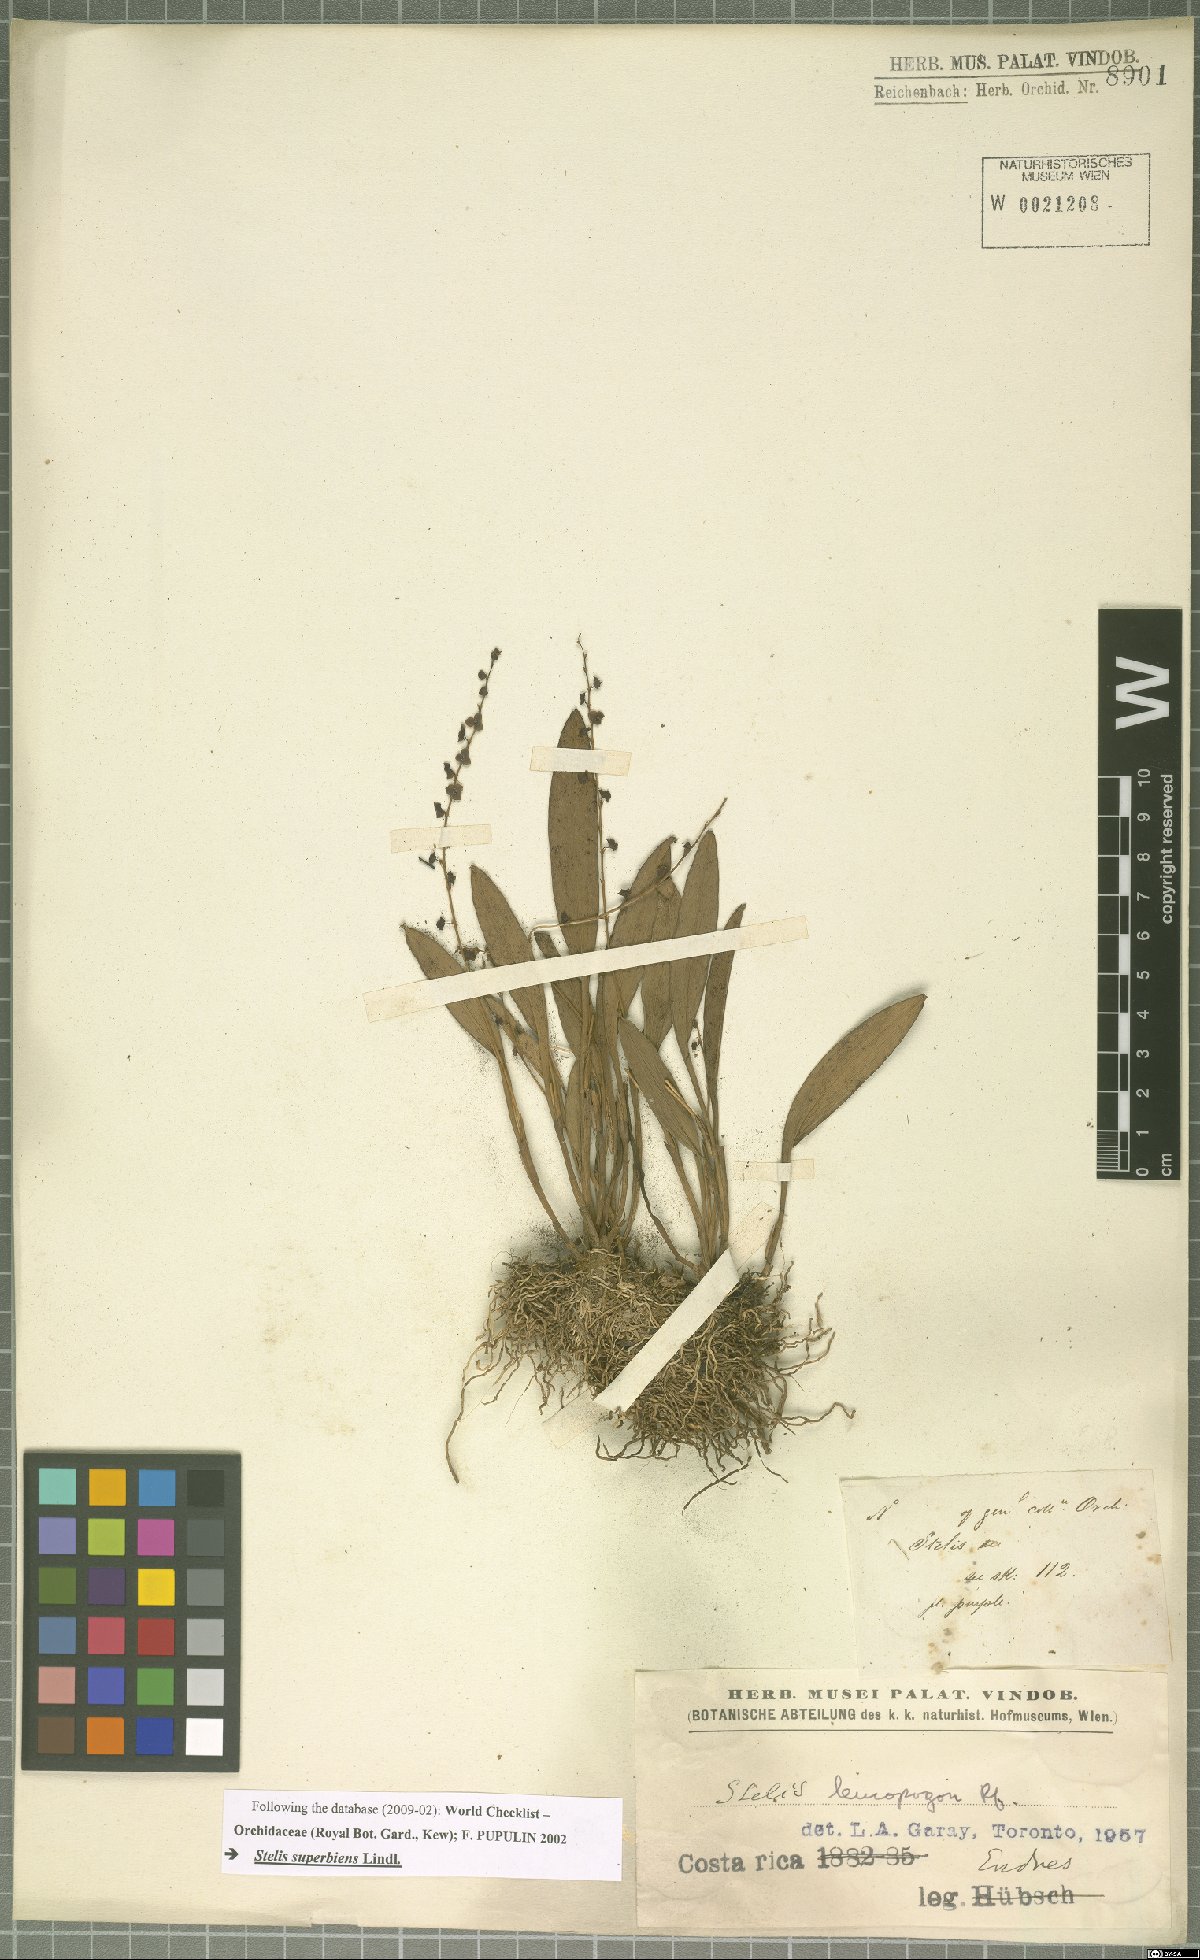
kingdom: Plantae
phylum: Tracheophyta
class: Liliopsida
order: Asparagales
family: Orchidaceae
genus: Stelis
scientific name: Stelis superbiens
